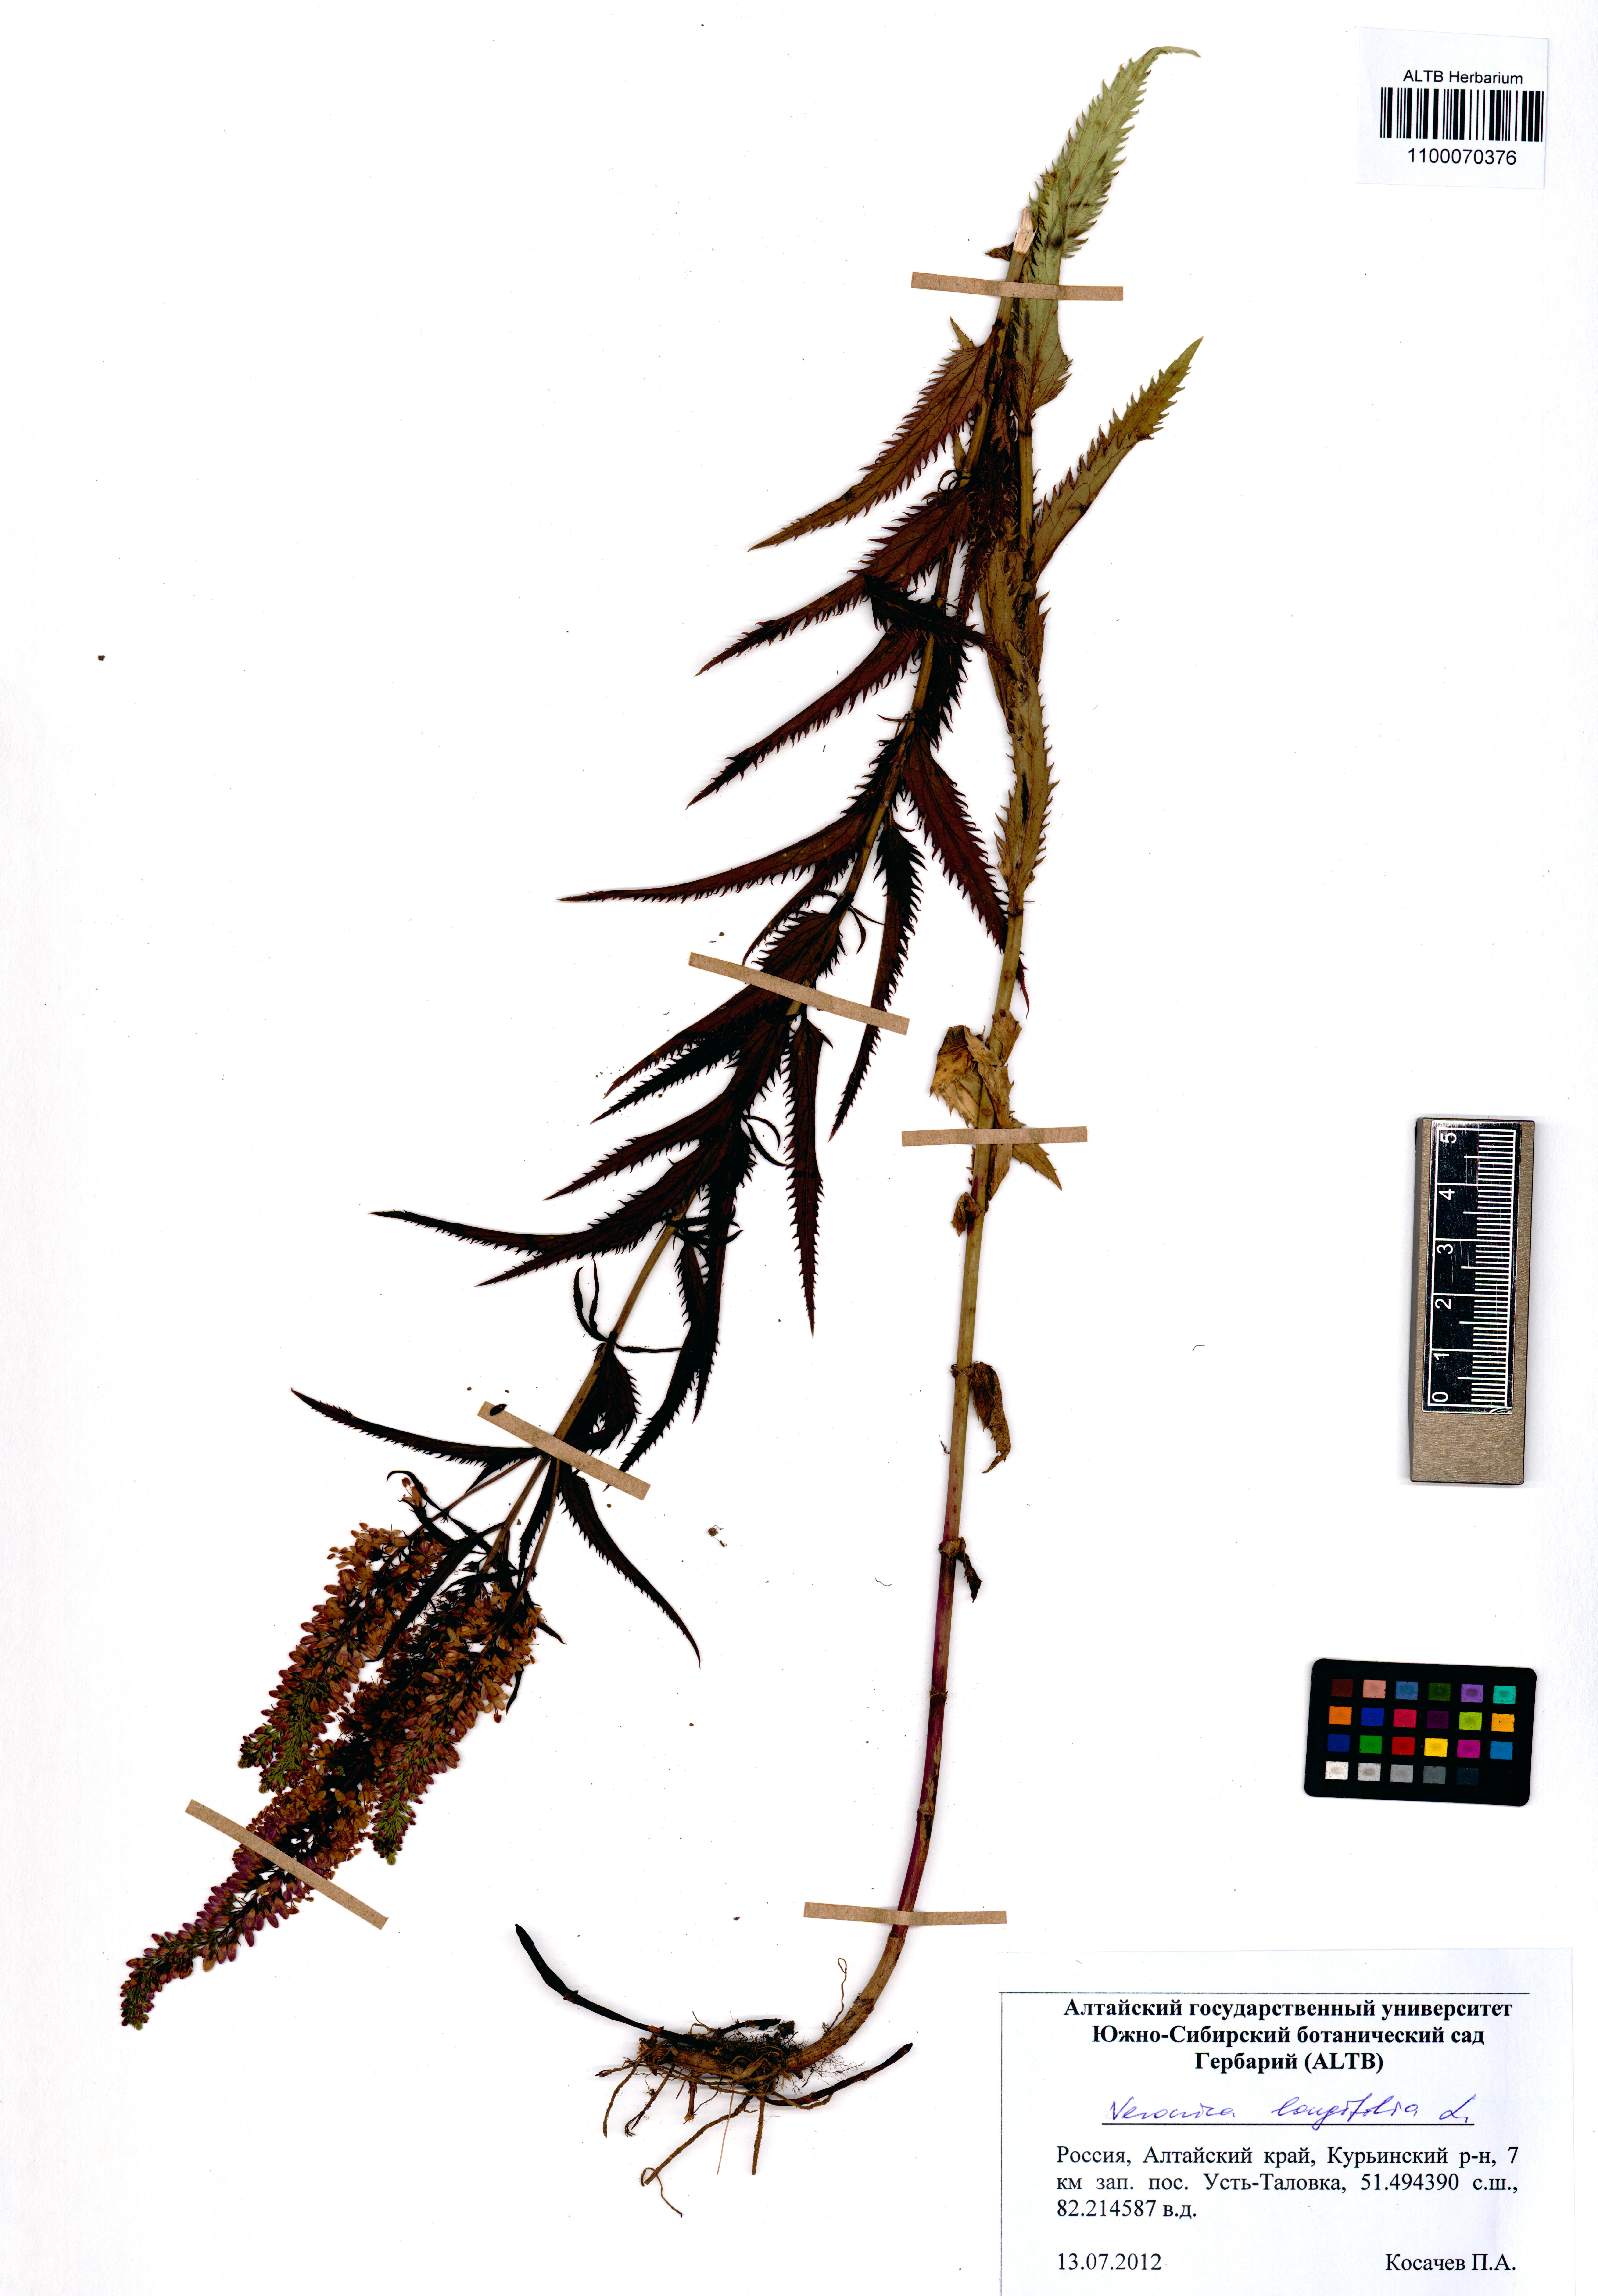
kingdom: Plantae
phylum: Tracheophyta
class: Magnoliopsida
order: Lamiales
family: Plantaginaceae
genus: Veronica
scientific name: Veronica longifolia
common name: Garden speedwell
